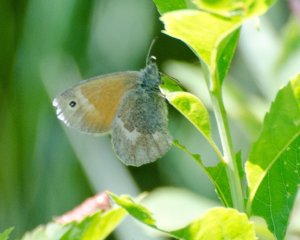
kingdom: Animalia
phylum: Arthropoda
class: Insecta
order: Lepidoptera
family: Nymphalidae
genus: Coenonympha
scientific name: Coenonympha tullia
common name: Large Heath
